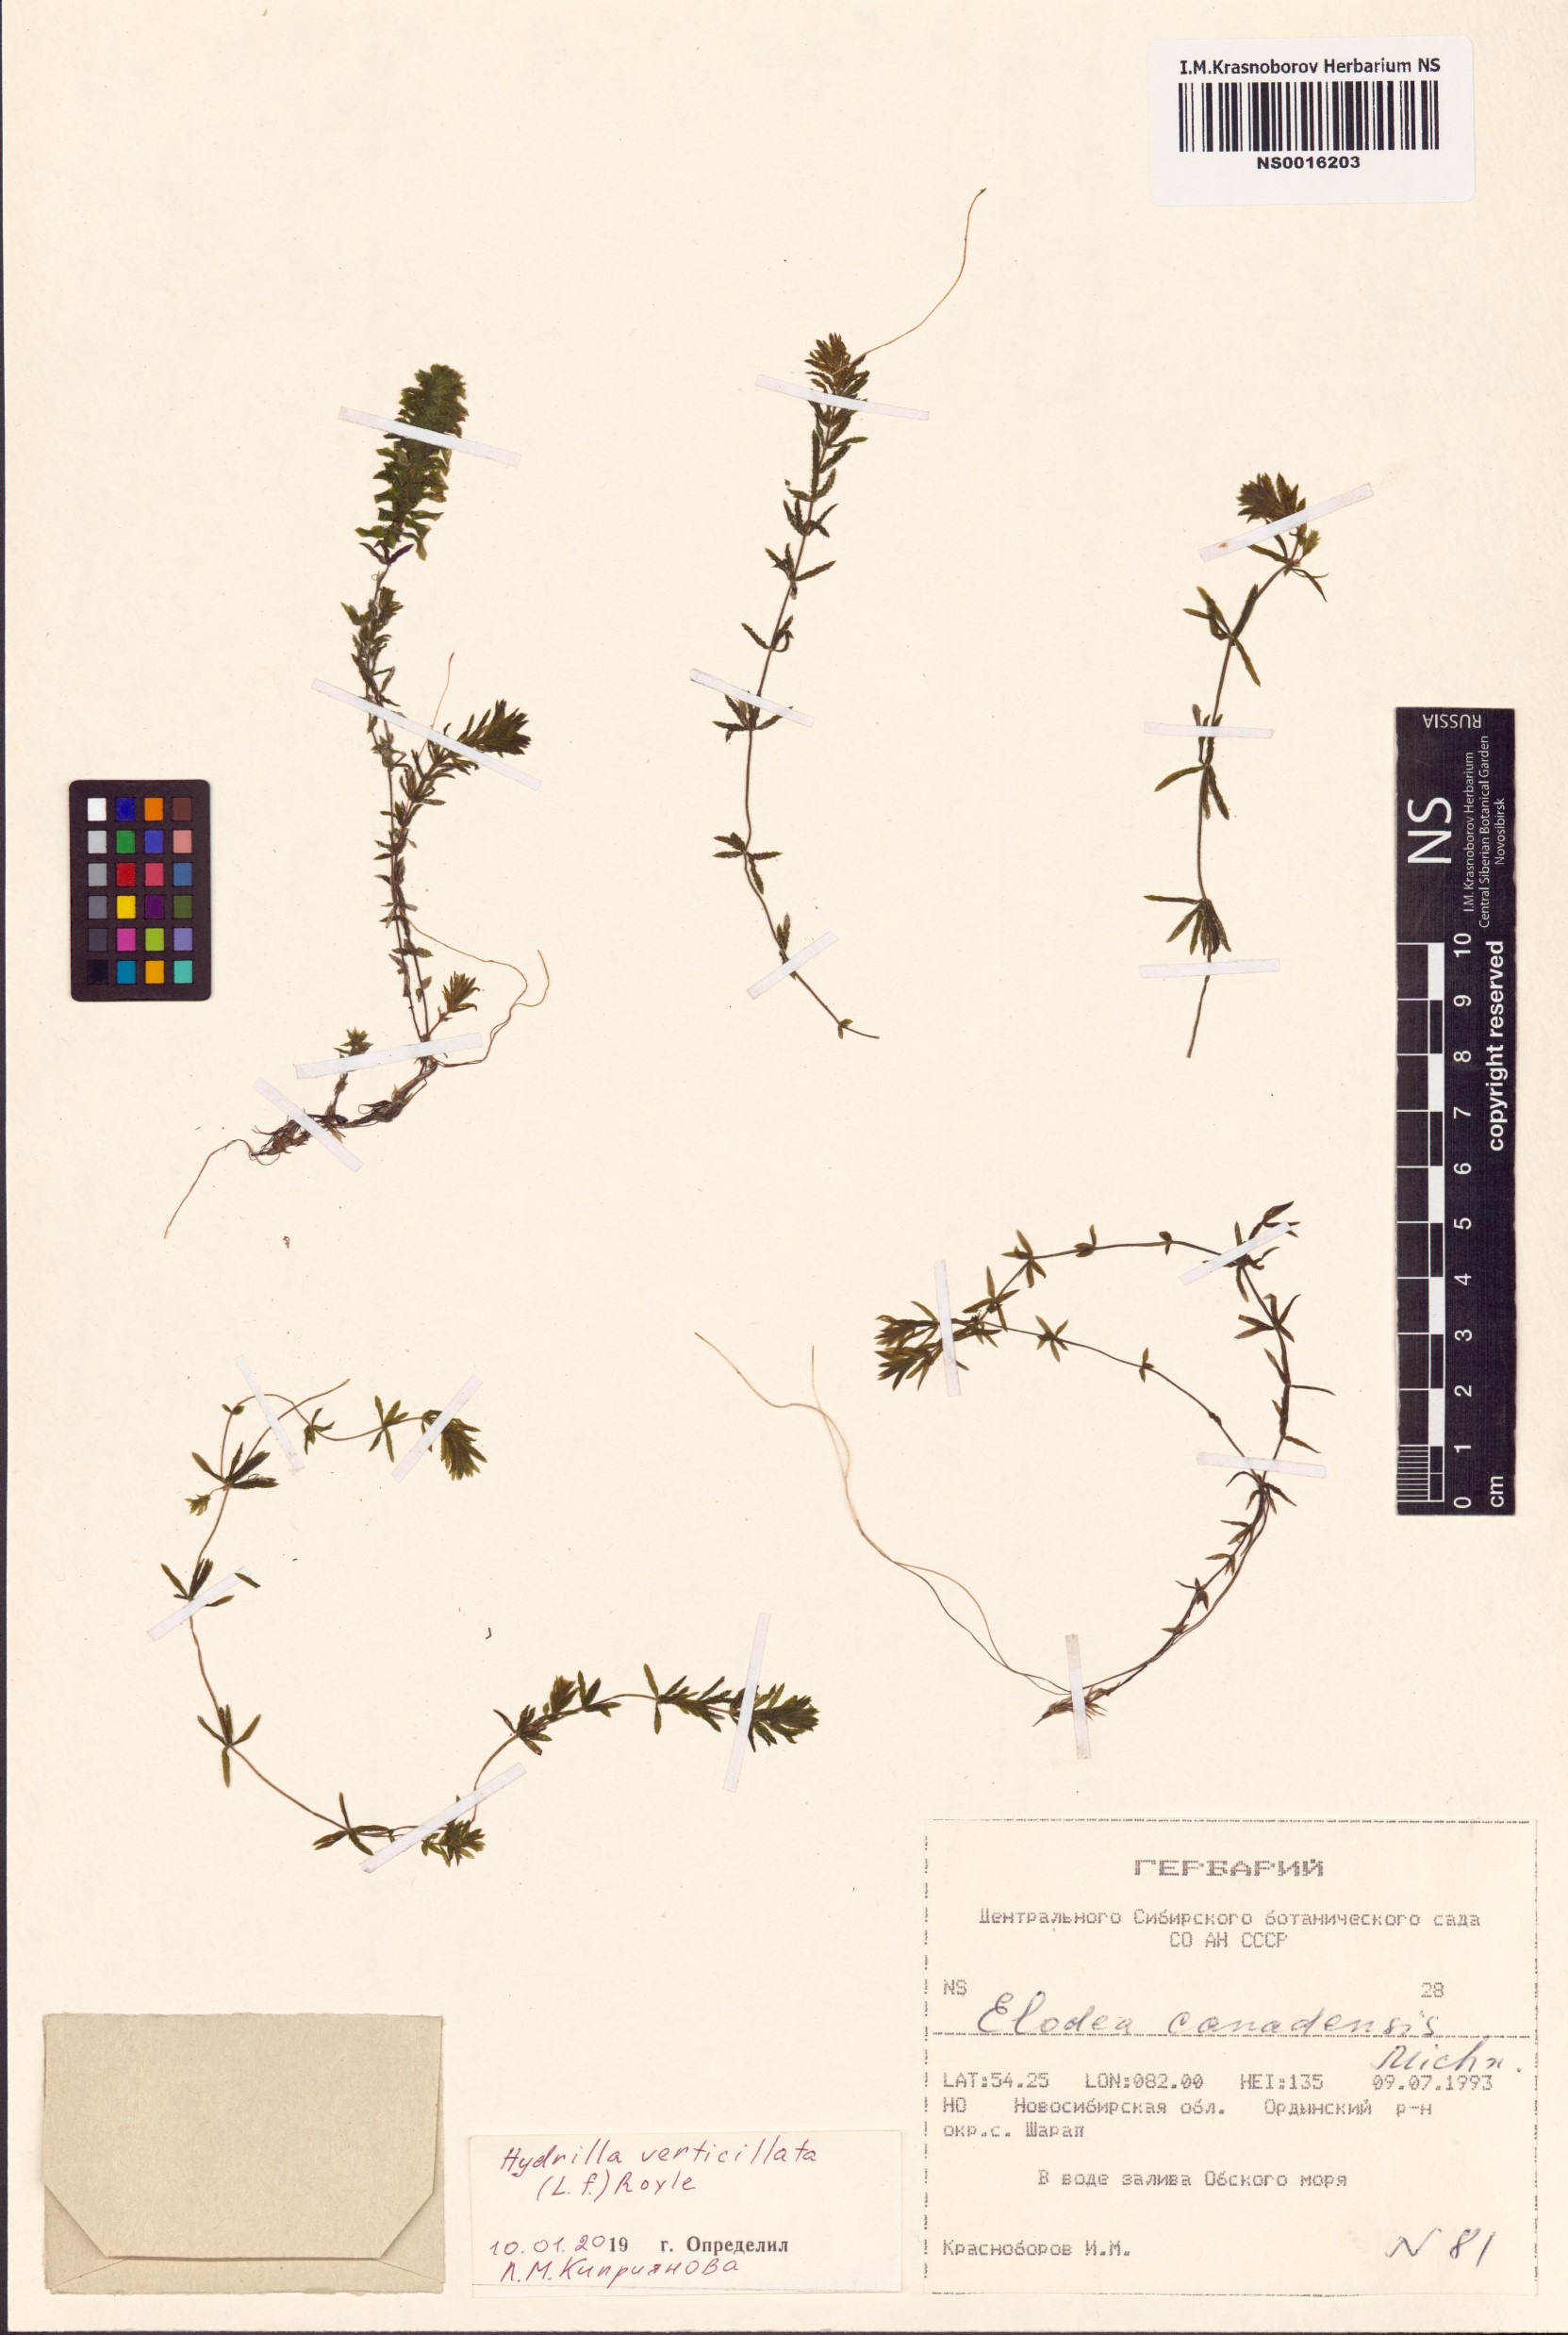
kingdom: Plantae
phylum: Tracheophyta
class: Liliopsida
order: Alismatales
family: Hydrocharitaceae
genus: Hydrilla
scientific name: Hydrilla verticillata
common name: Florida-elodea
